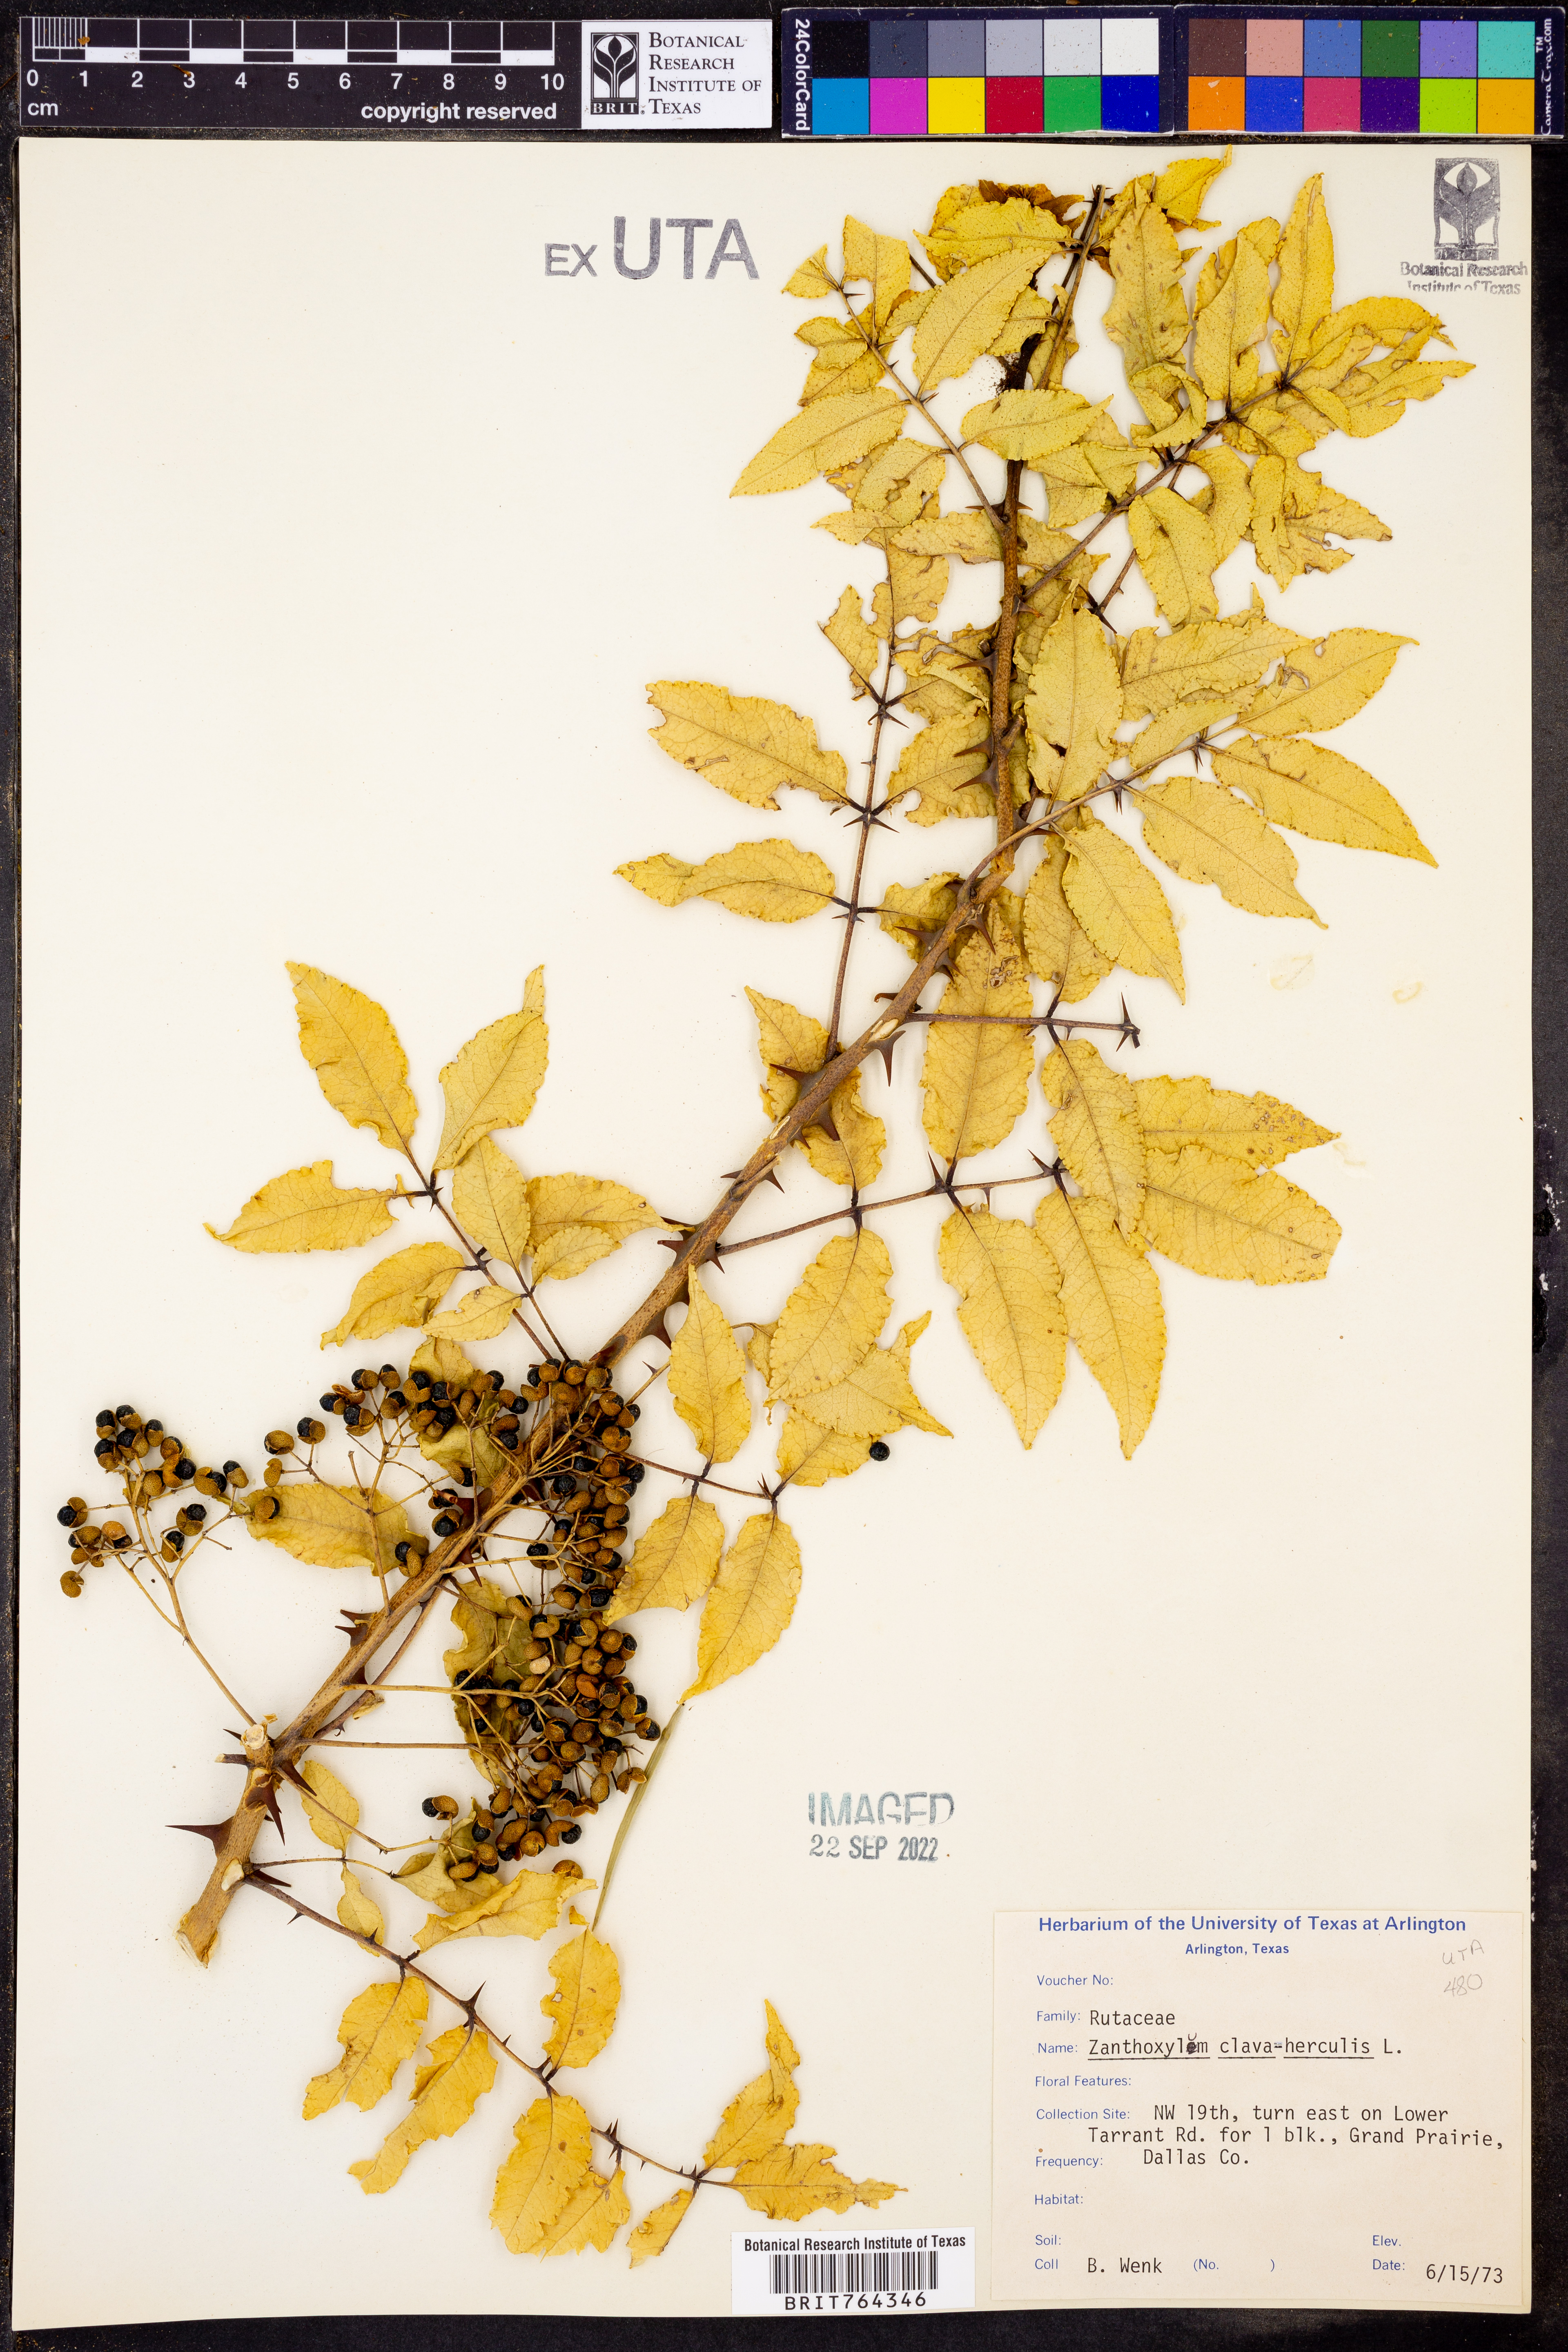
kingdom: Plantae
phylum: Tracheophyta
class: Magnoliopsida
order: Sapindales
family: Rutaceae
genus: Zanthoxylum
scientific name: Zanthoxylum avicennae
